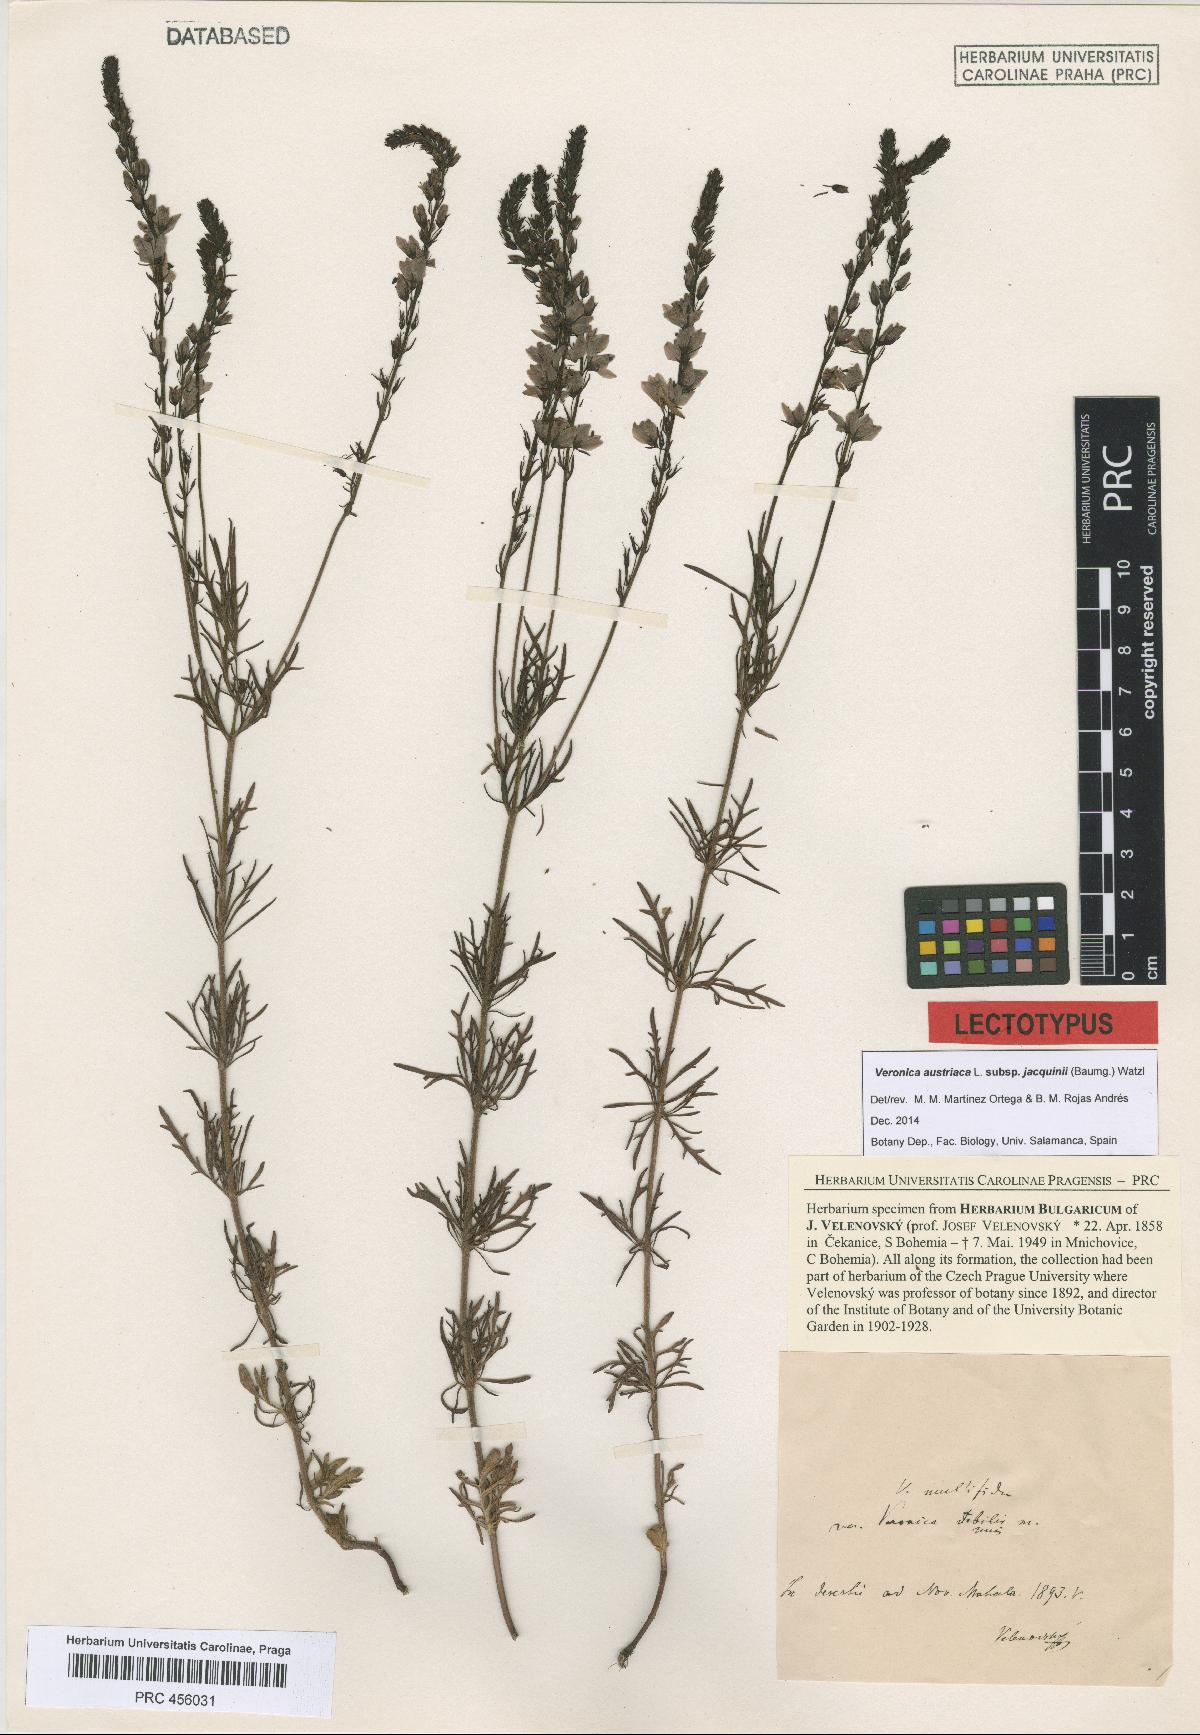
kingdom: Plantae
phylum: Tracheophyta
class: Magnoliopsida
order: Lamiales
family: Plantaginaceae
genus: Veronica
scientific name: Veronica austriaca
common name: Large speedwell
